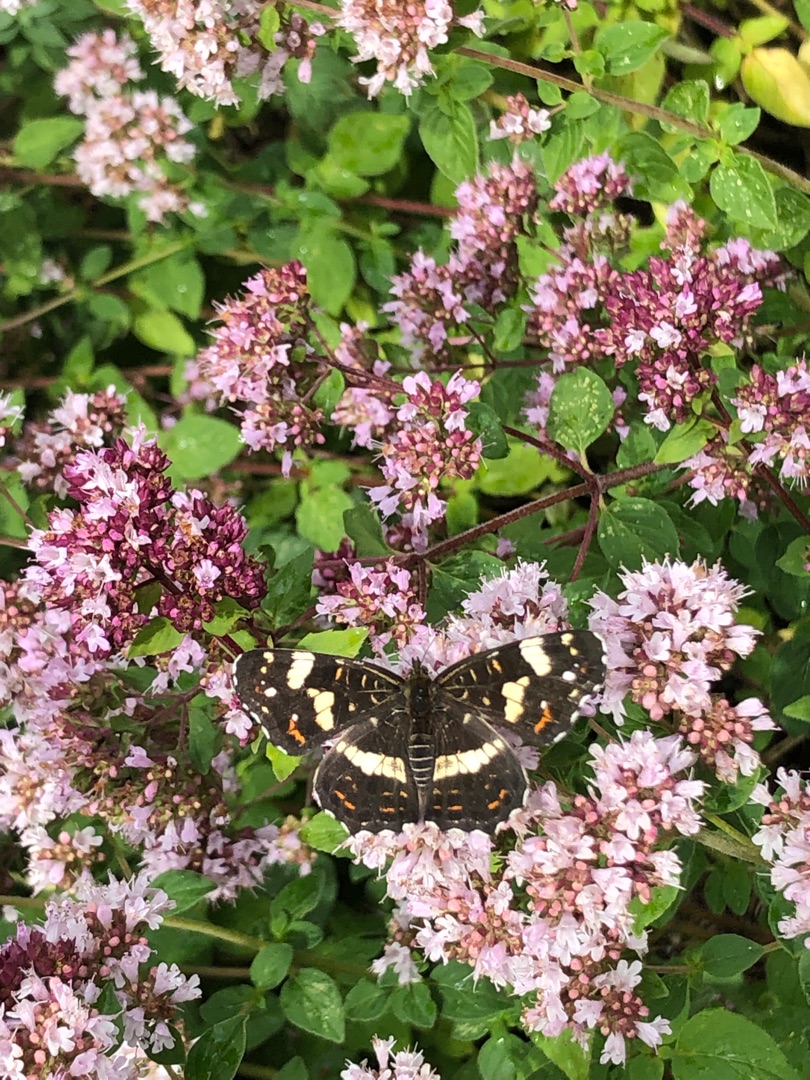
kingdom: Animalia
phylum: Arthropoda
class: Insecta
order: Lepidoptera
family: Nymphalidae
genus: Araschnia
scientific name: Araschnia levana
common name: Nældesommerfugl
